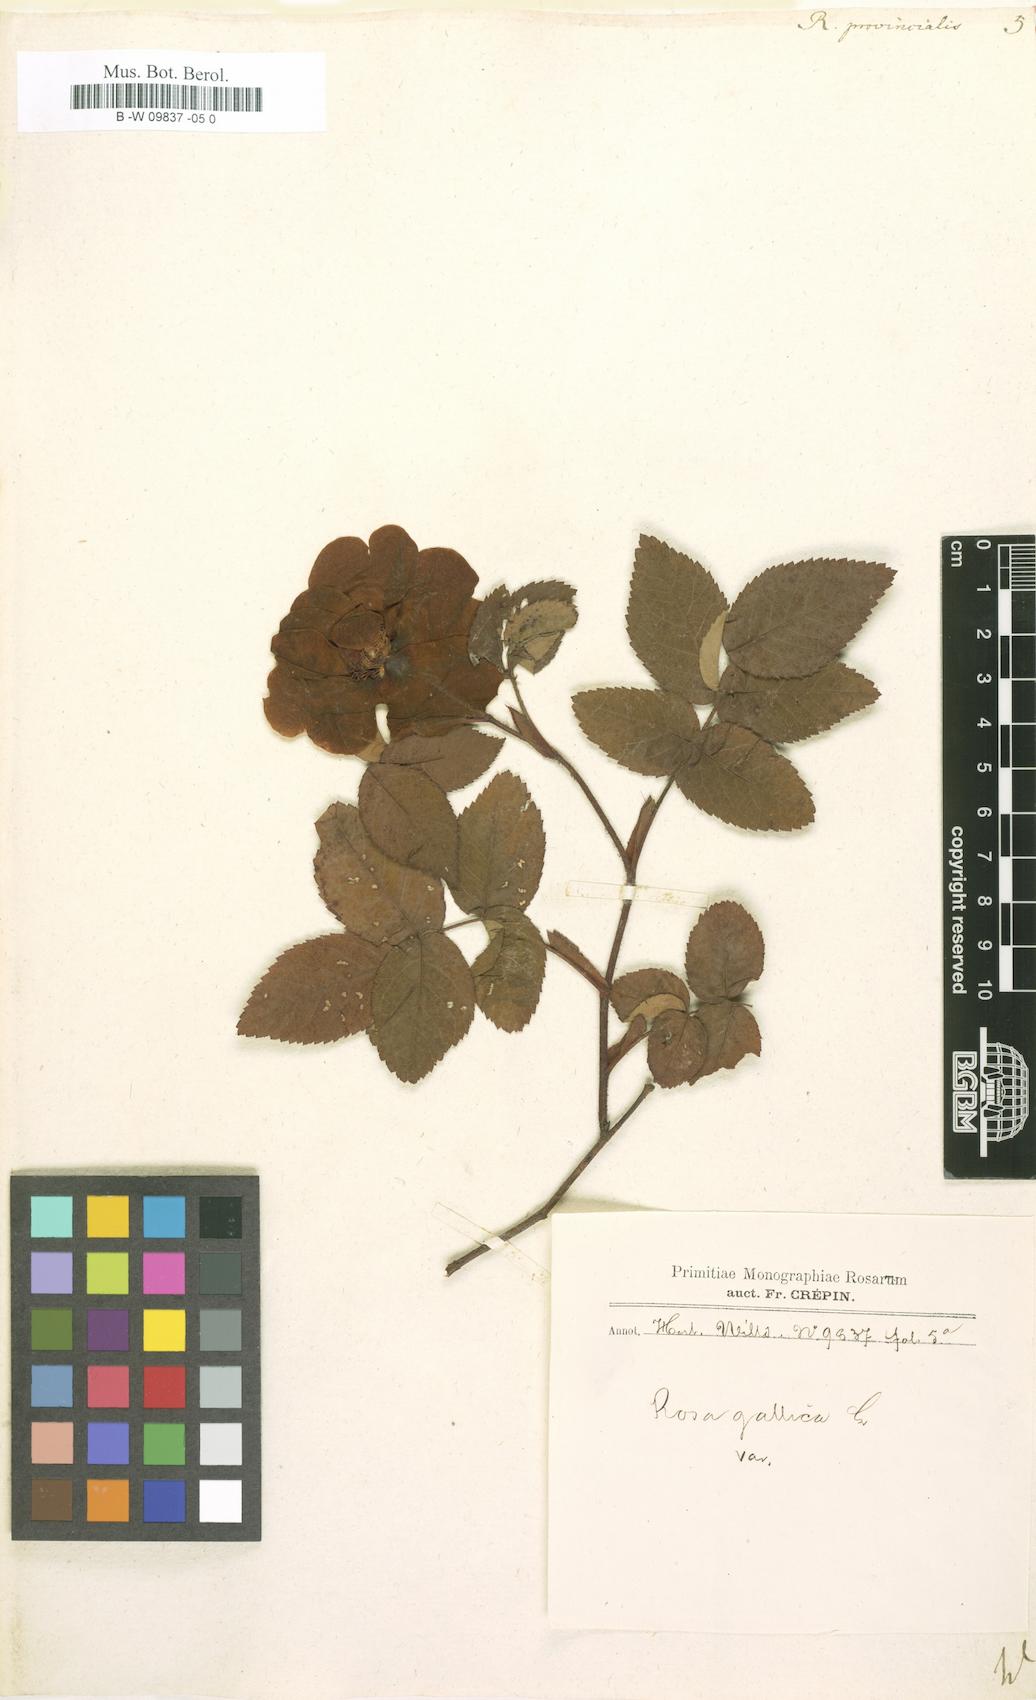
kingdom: Plantae
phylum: Tracheophyta
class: Magnoliopsida
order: Rosales
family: Rosaceae
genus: Rosa
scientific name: Rosa
